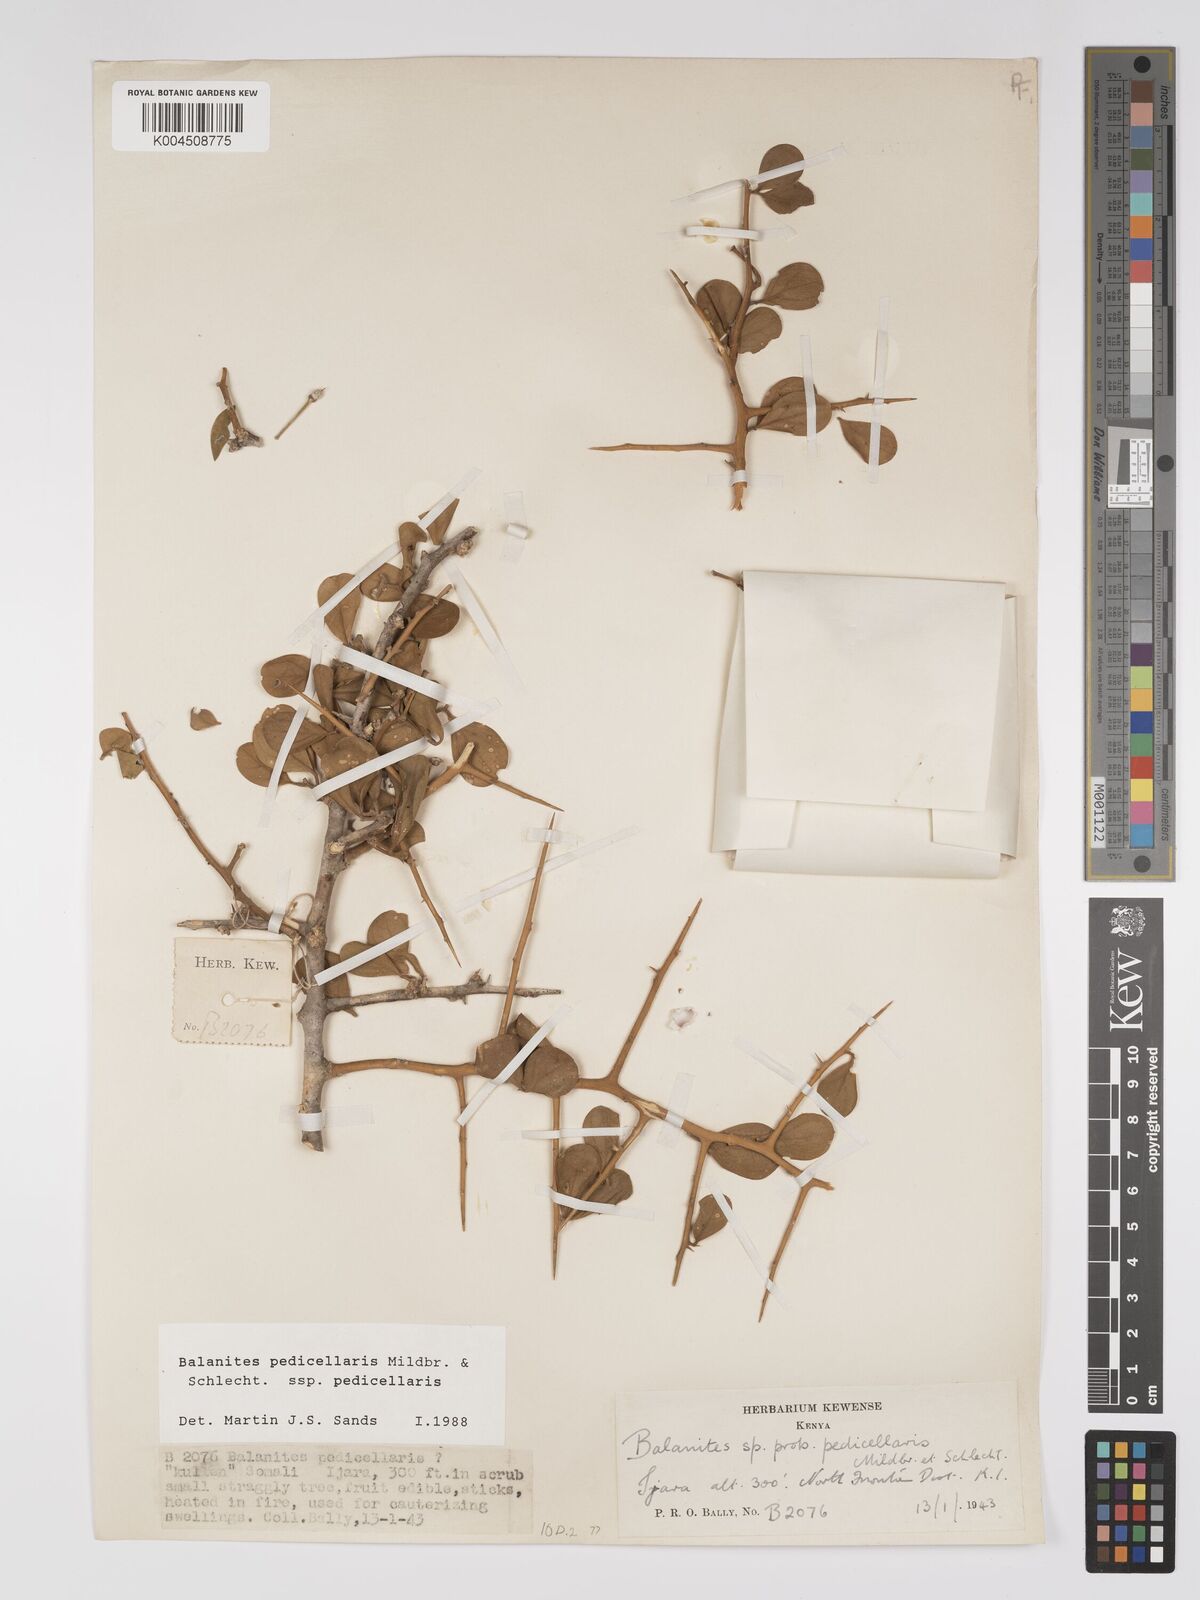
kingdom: Plantae
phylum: Tracheophyta
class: Magnoliopsida
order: Zygophyllales
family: Zygophyllaceae
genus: Balanites
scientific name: Balanites pedicellaris
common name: Small green-thorn
